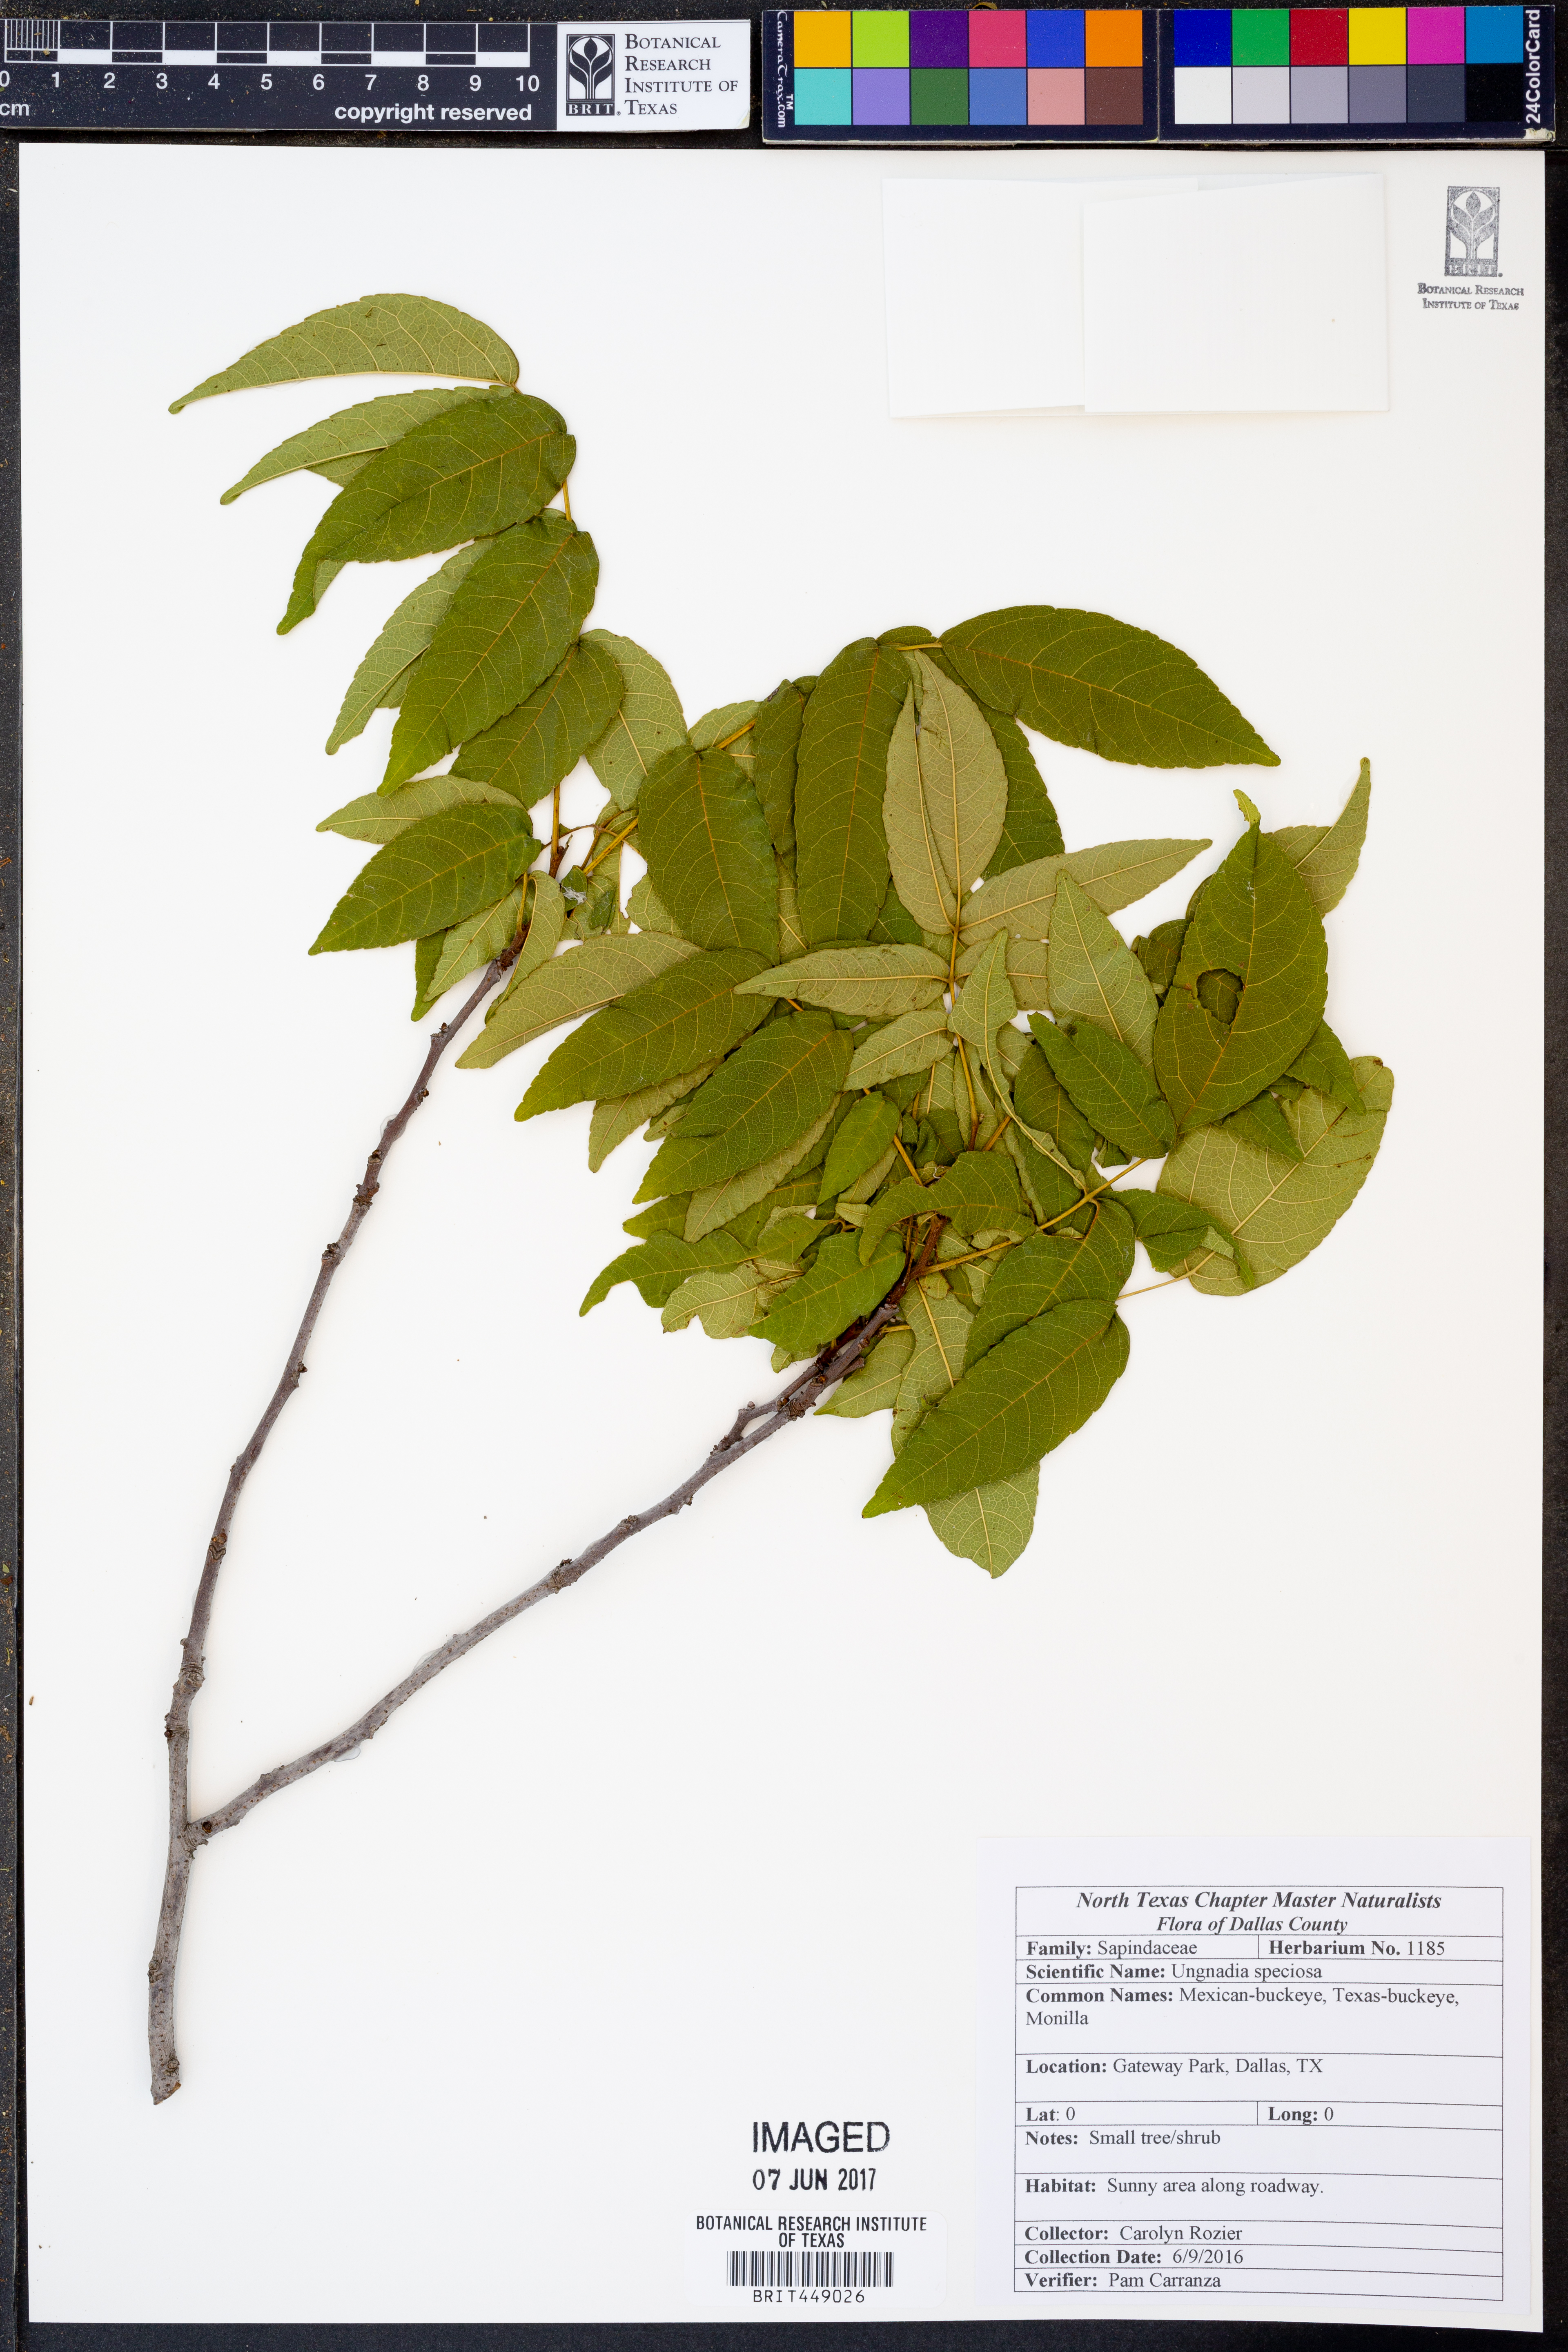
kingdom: Plantae
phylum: Tracheophyta
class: Magnoliopsida
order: Sapindales
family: Sapindaceae
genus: Ungnadia
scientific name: Ungnadia speciosa
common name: Texas-buckeye
